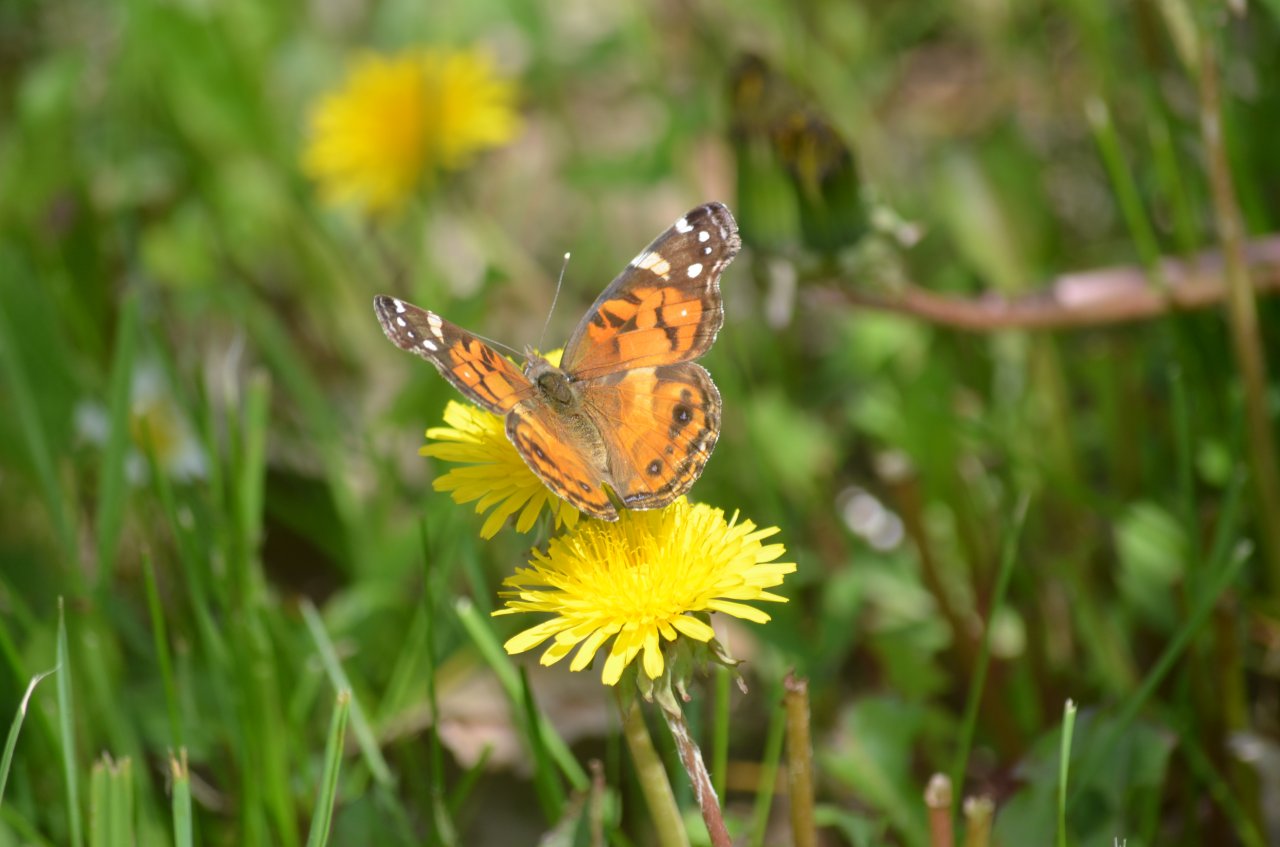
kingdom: Animalia
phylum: Arthropoda
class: Insecta
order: Lepidoptera
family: Nymphalidae
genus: Vanessa
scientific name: Vanessa virginiensis
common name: American Lady
